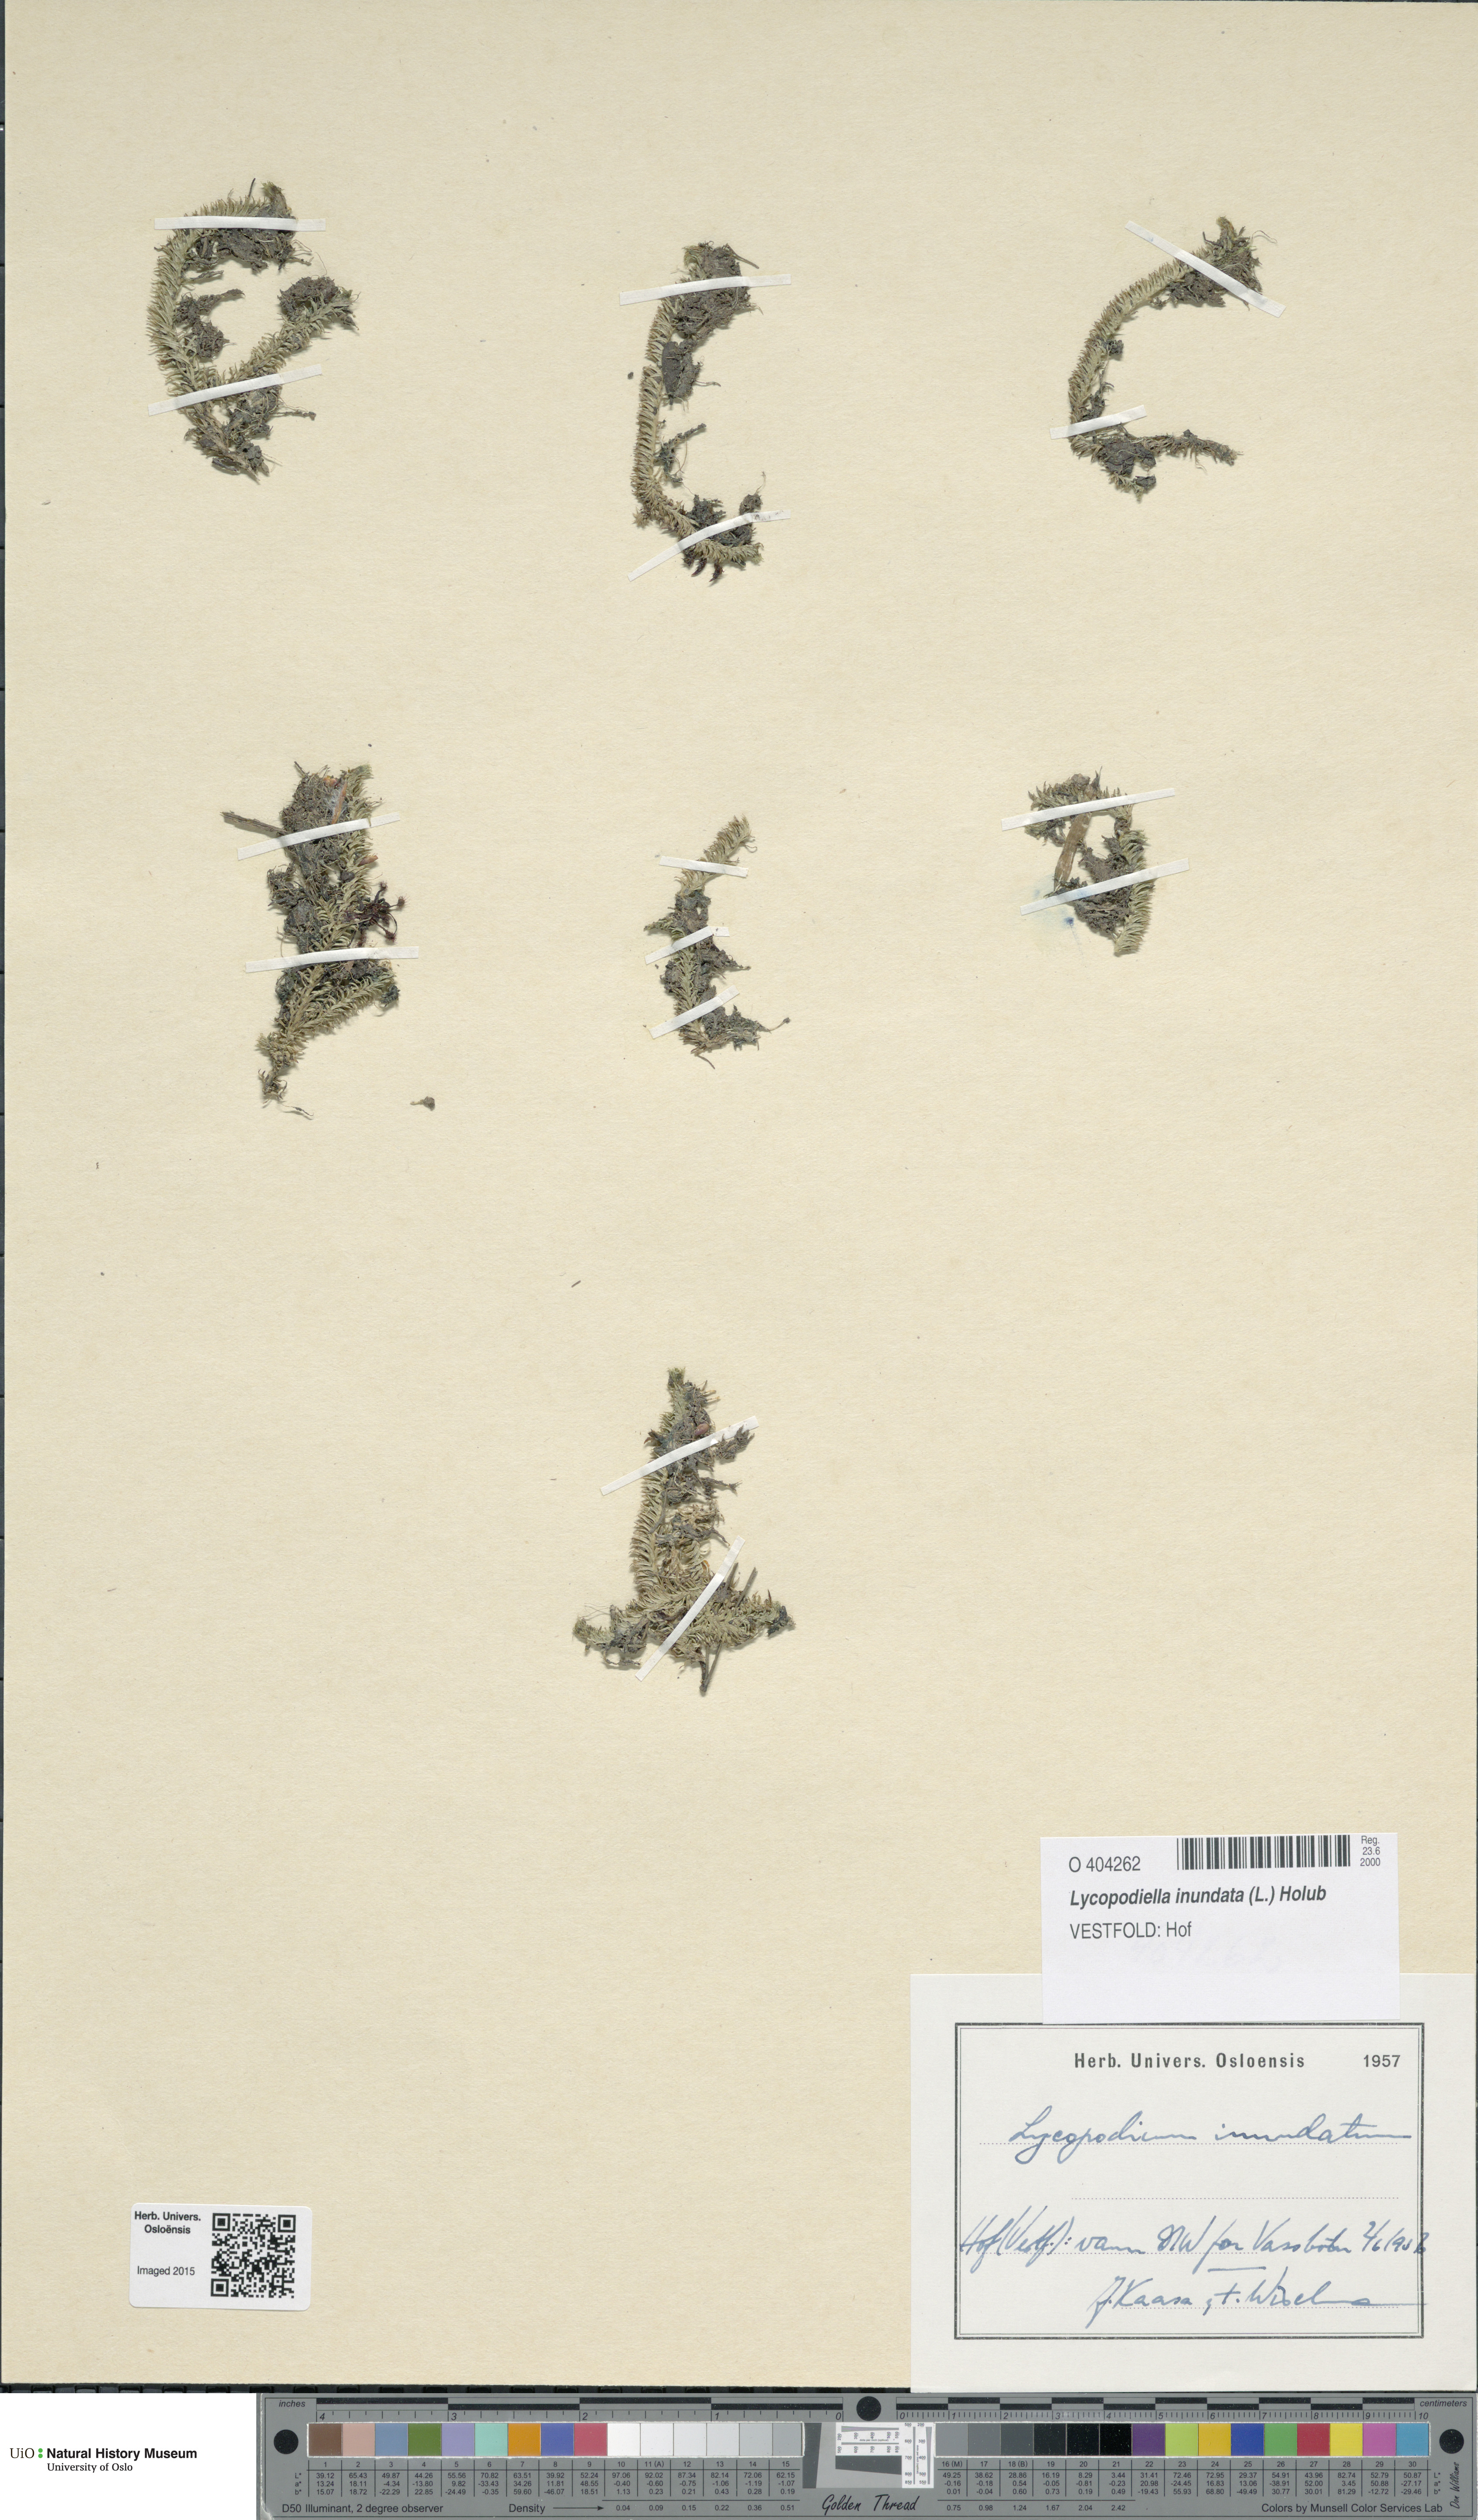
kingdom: Plantae
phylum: Tracheophyta
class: Lycopodiopsida
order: Lycopodiales
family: Lycopodiaceae
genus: Lycopodiella
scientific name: Lycopodiella inundata
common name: Marsh clubmoss
